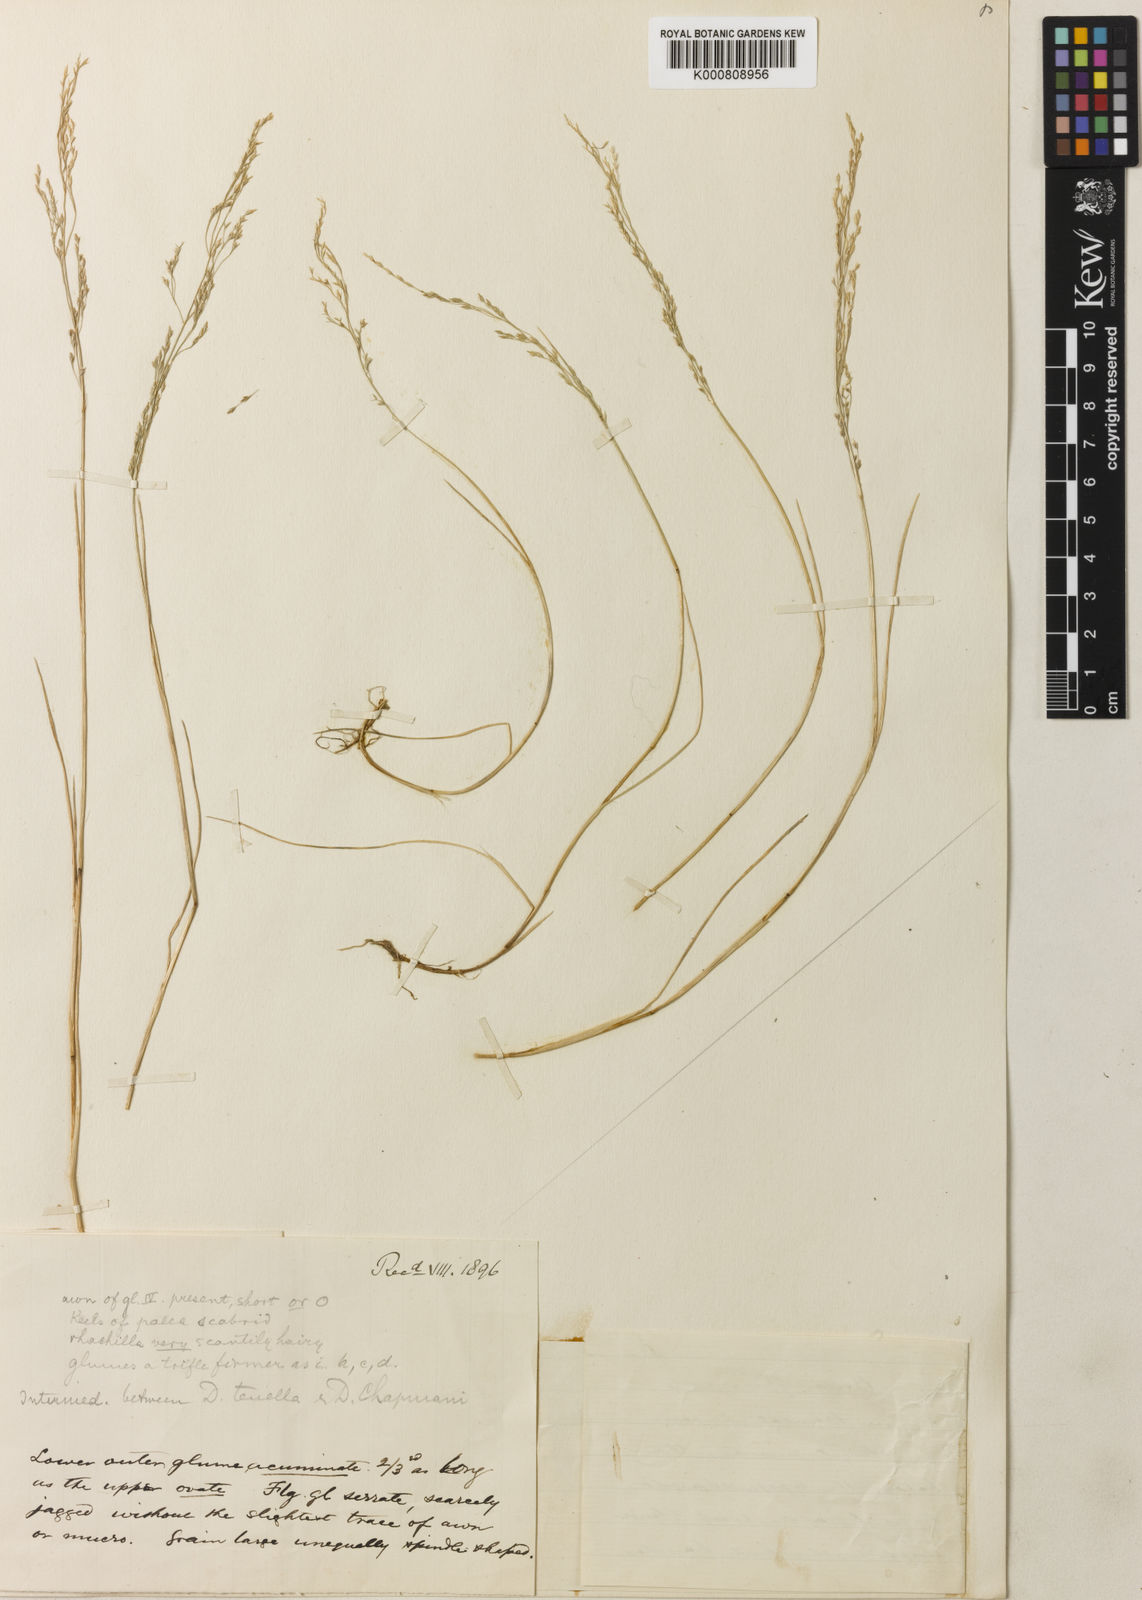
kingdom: Plantae
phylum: Tracheophyta
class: Liliopsida
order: Poales
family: Poaceae
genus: Deschampsia
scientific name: Deschampsia tenella
